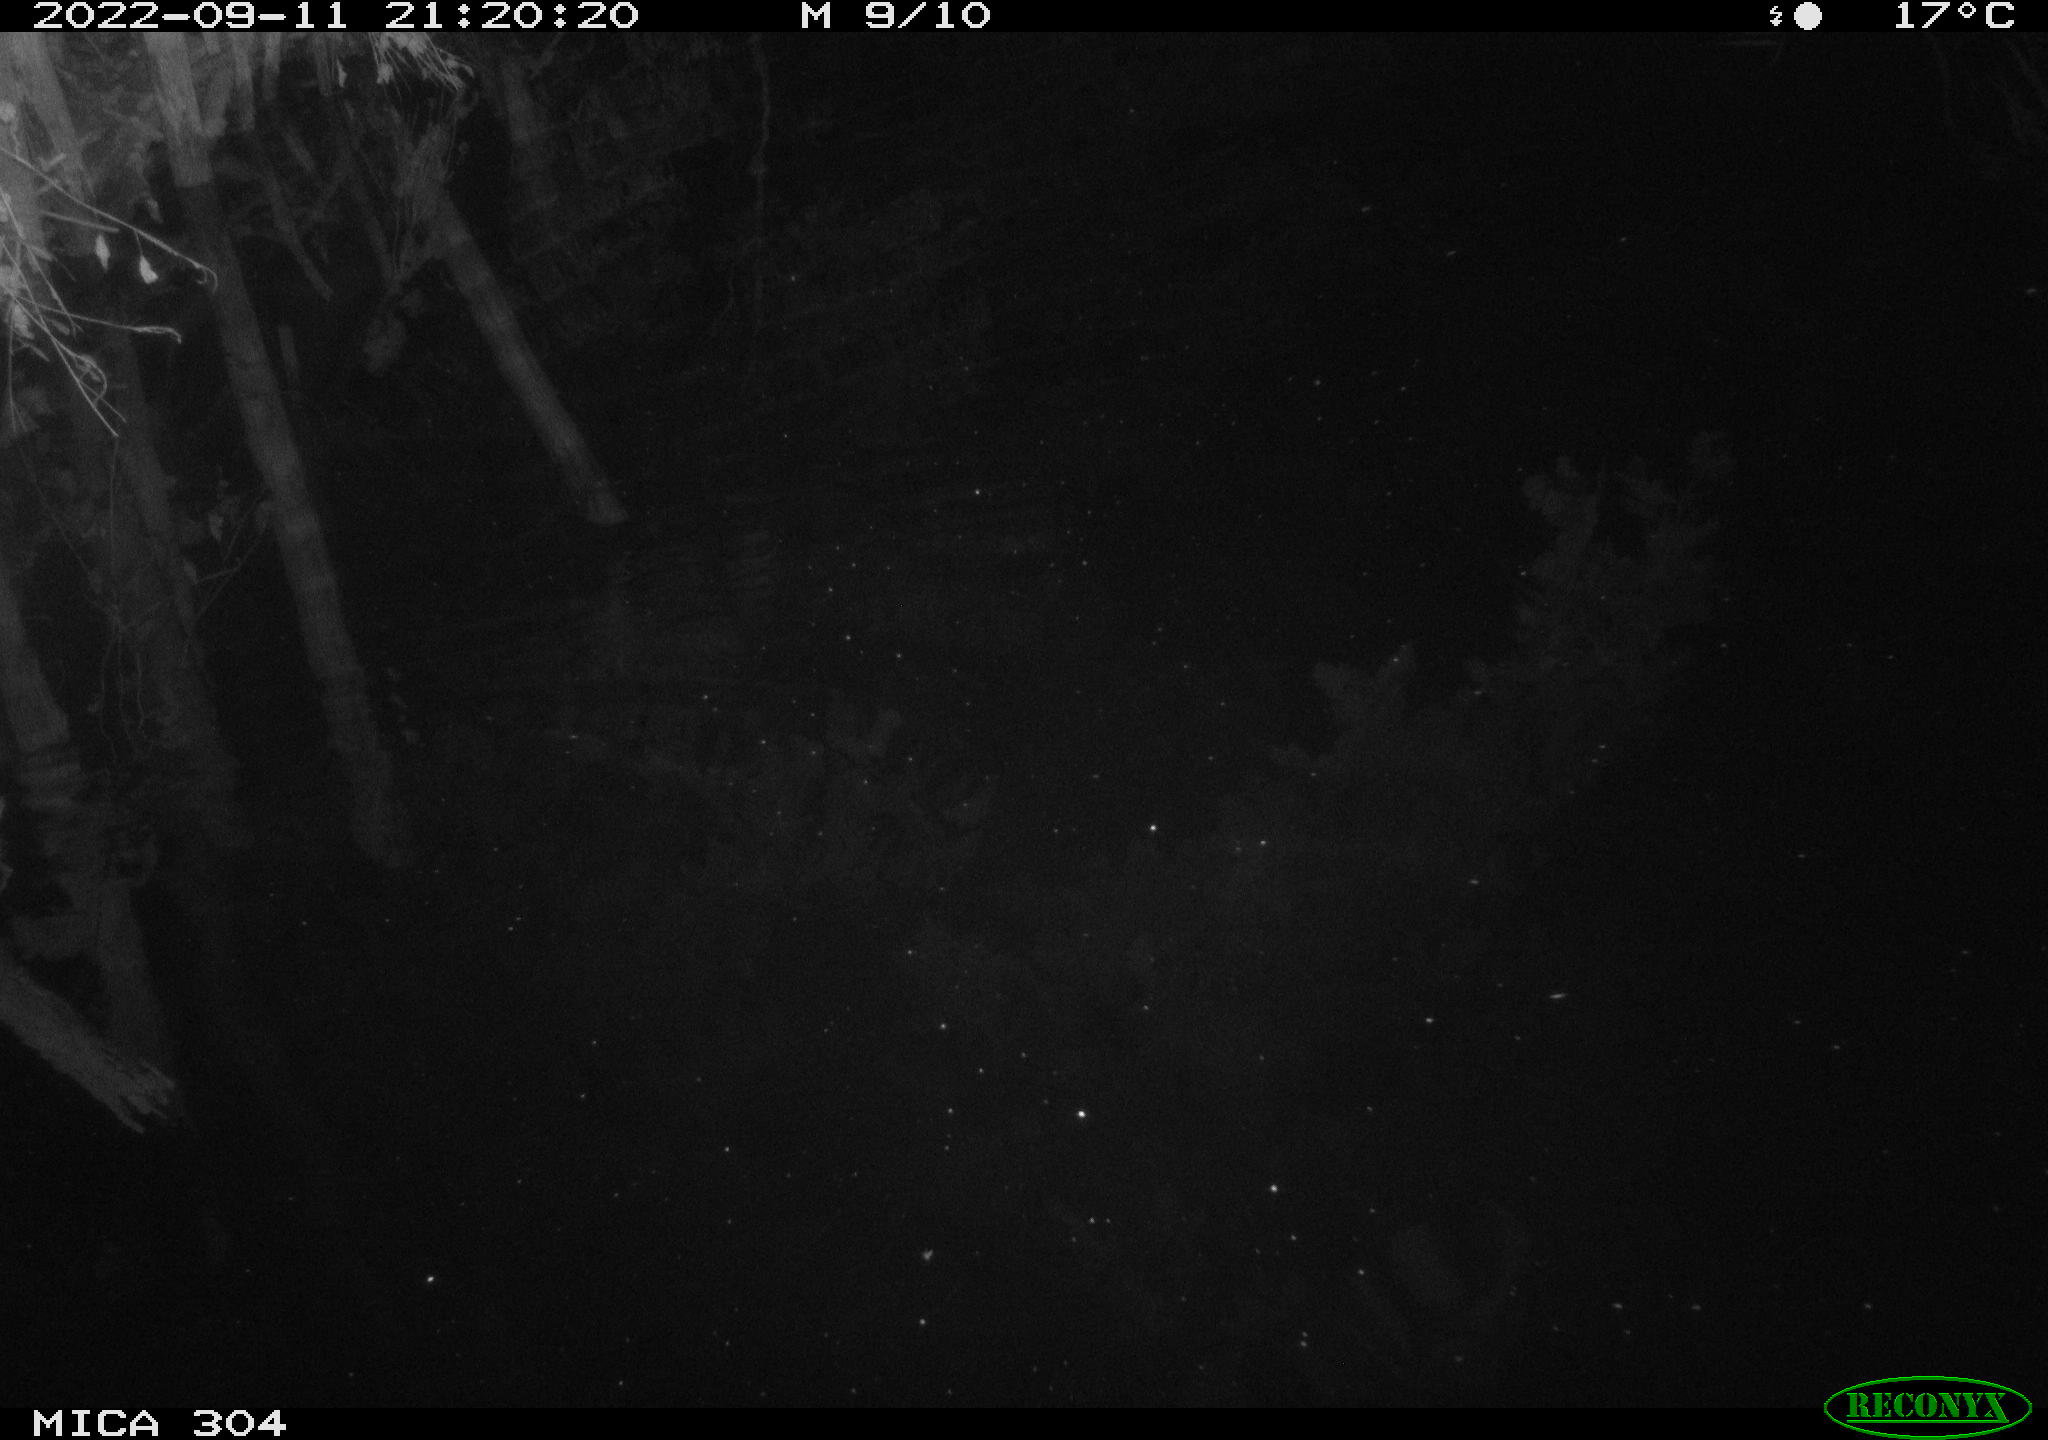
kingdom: Animalia
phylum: Chordata
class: Mammalia
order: Rodentia
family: Muridae
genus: Rattus
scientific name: Rattus norvegicus
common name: Brown rat
